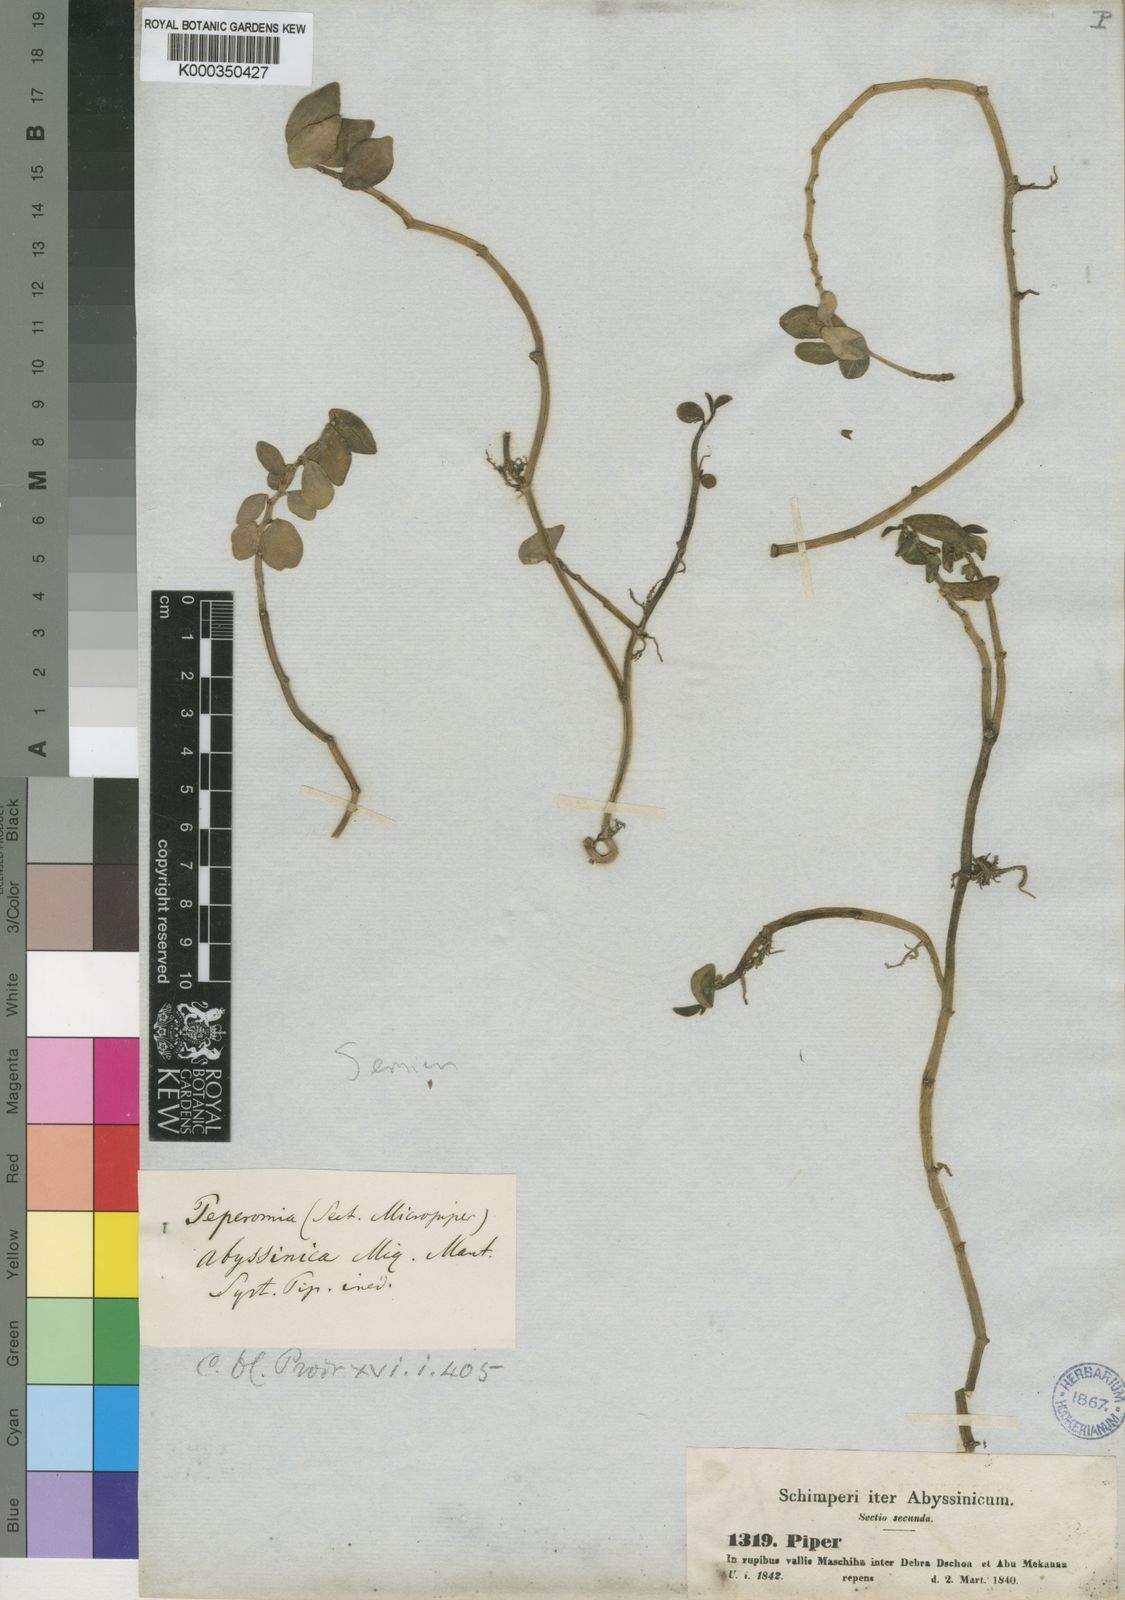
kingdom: Plantae
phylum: Tracheophyta
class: Magnoliopsida
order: Piperales
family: Piperaceae
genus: Peperomia
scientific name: Peperomia abyssinica
